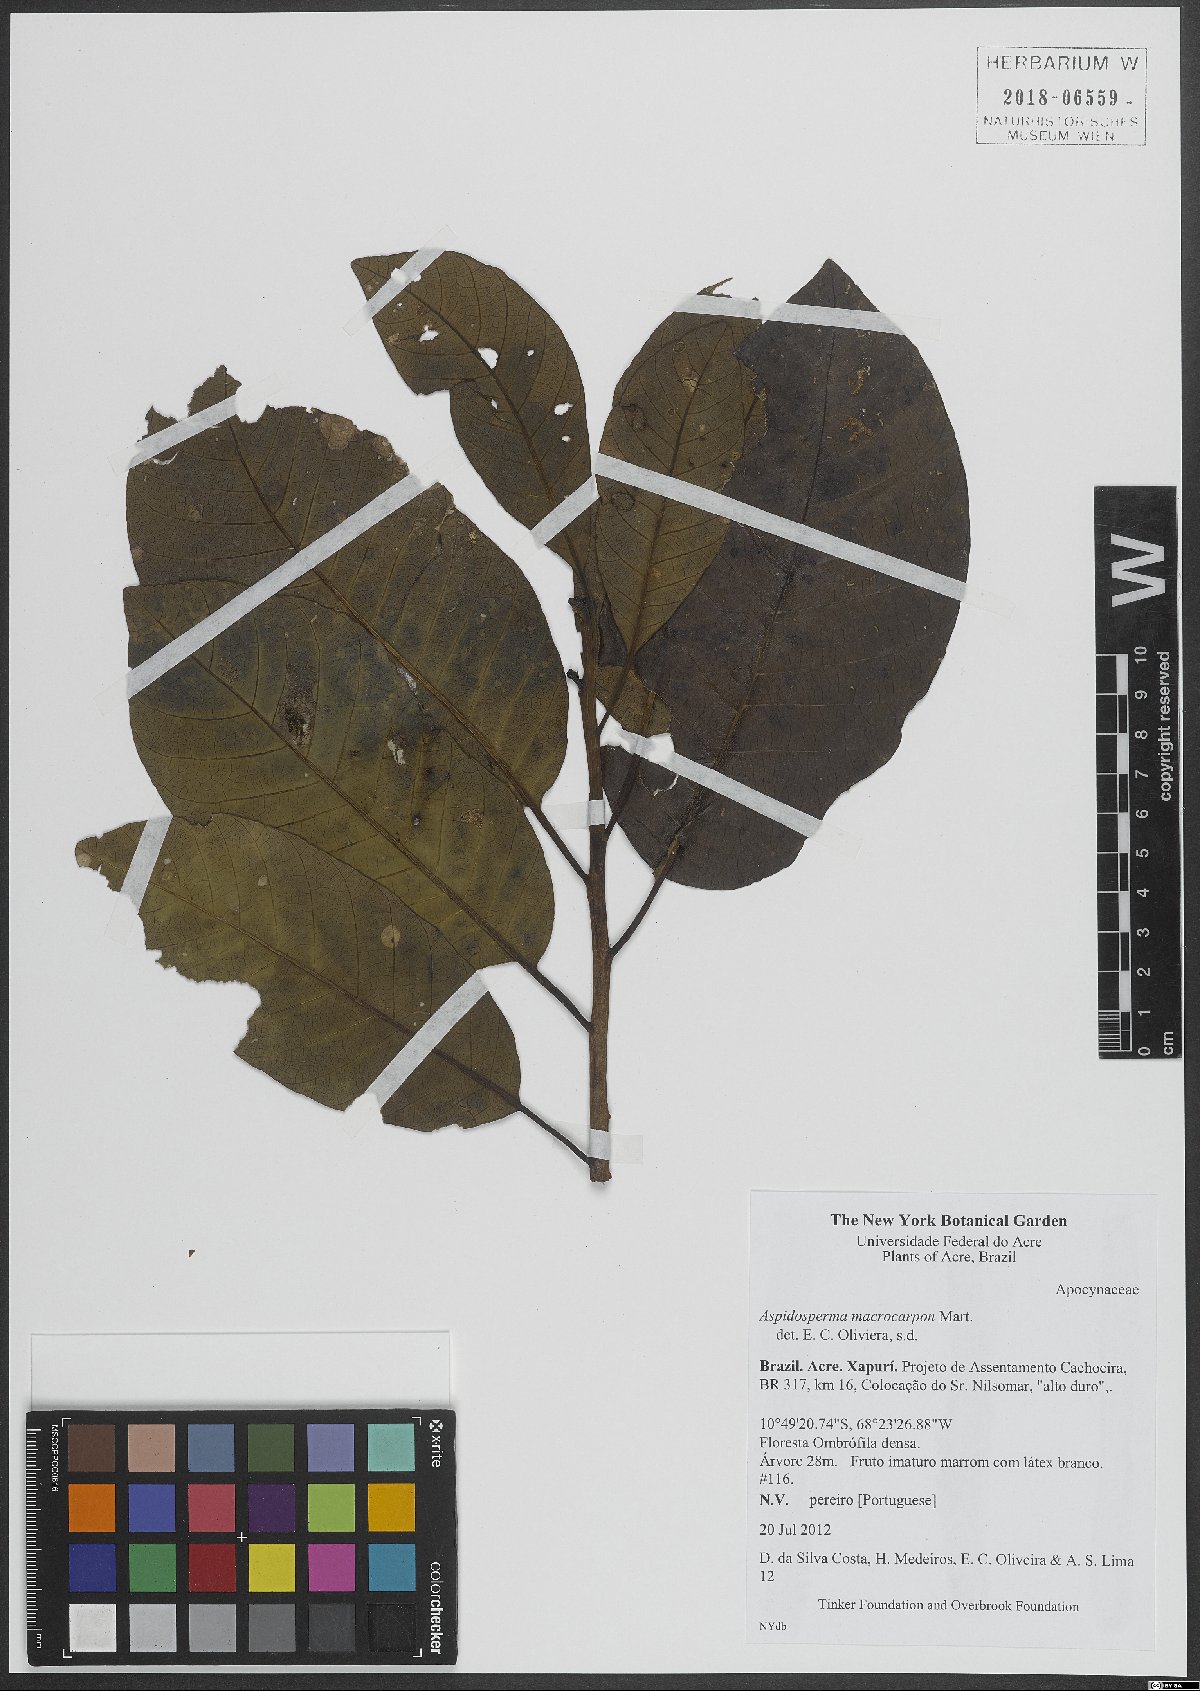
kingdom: Plantae
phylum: Tracheophyta
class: Magnoliopsida
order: Gentianales
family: Apocynaceae
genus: Aspidosperma
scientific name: Aspidosperma macrocarpon
